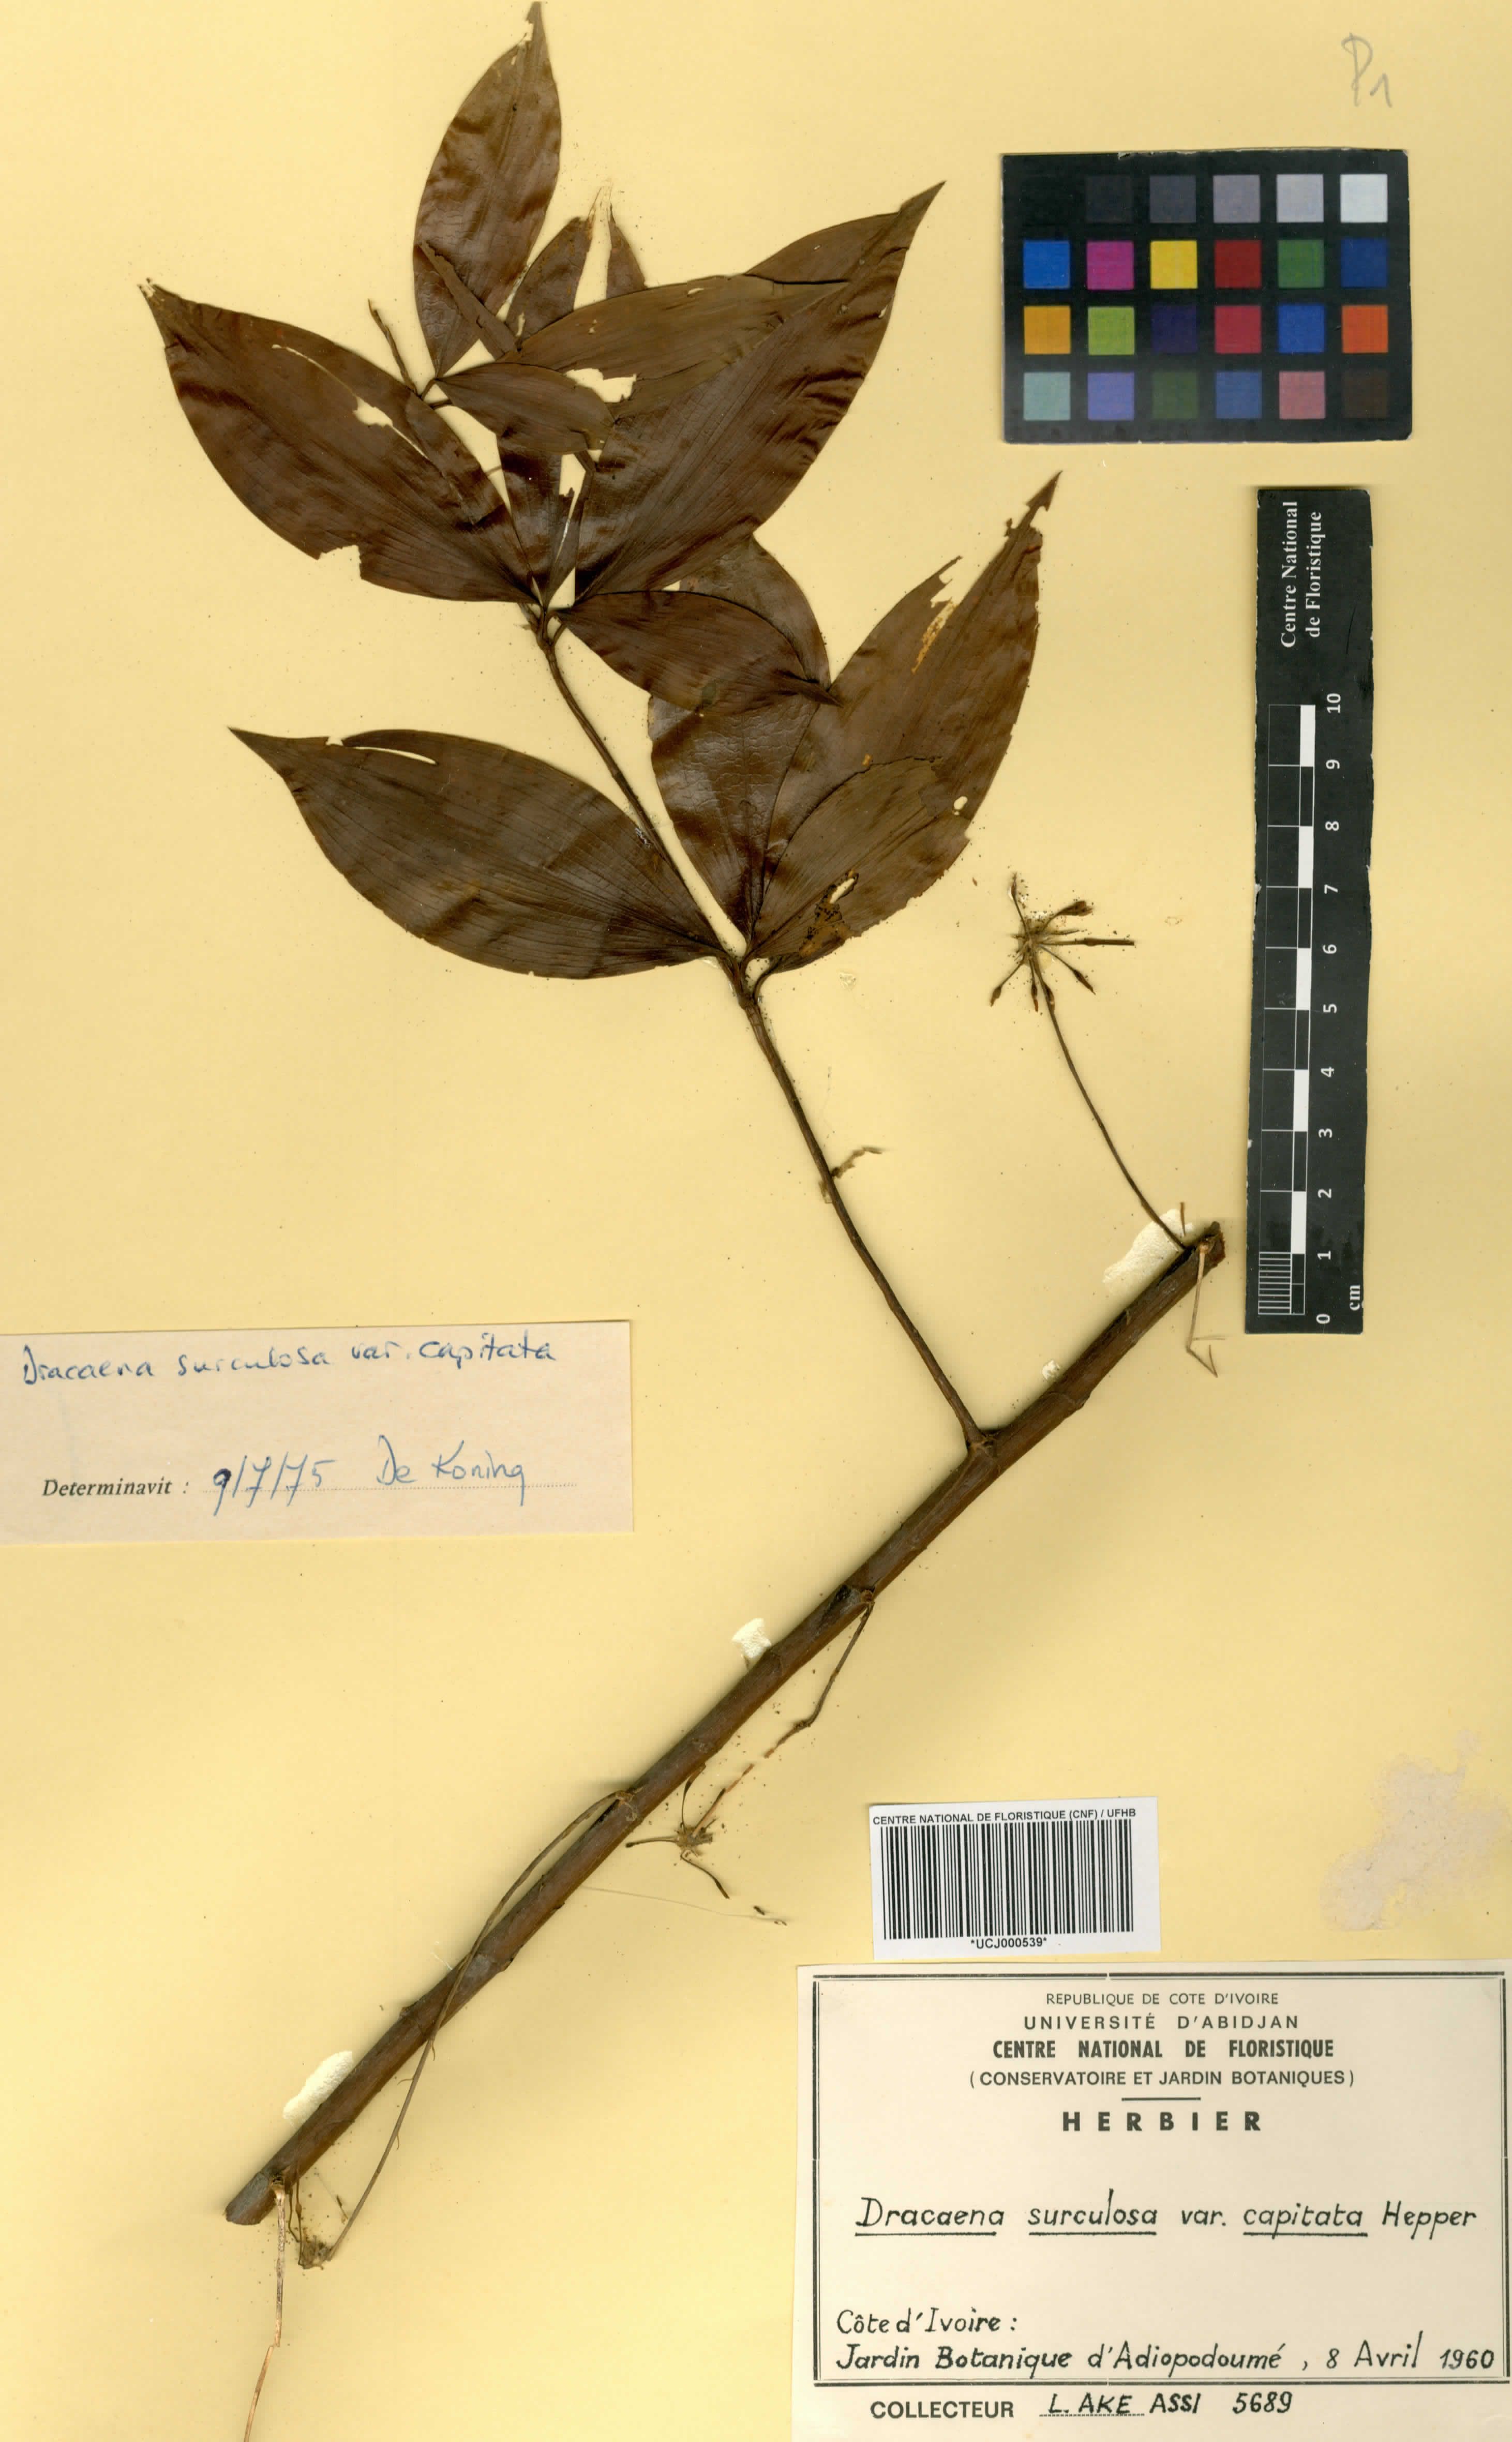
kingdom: Plantae
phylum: Tracheophyta
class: Liliopsida
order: Asparagales
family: Asparagaceae
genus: Dracaena
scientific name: Dracaena surculosa
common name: Spotted dracaena
